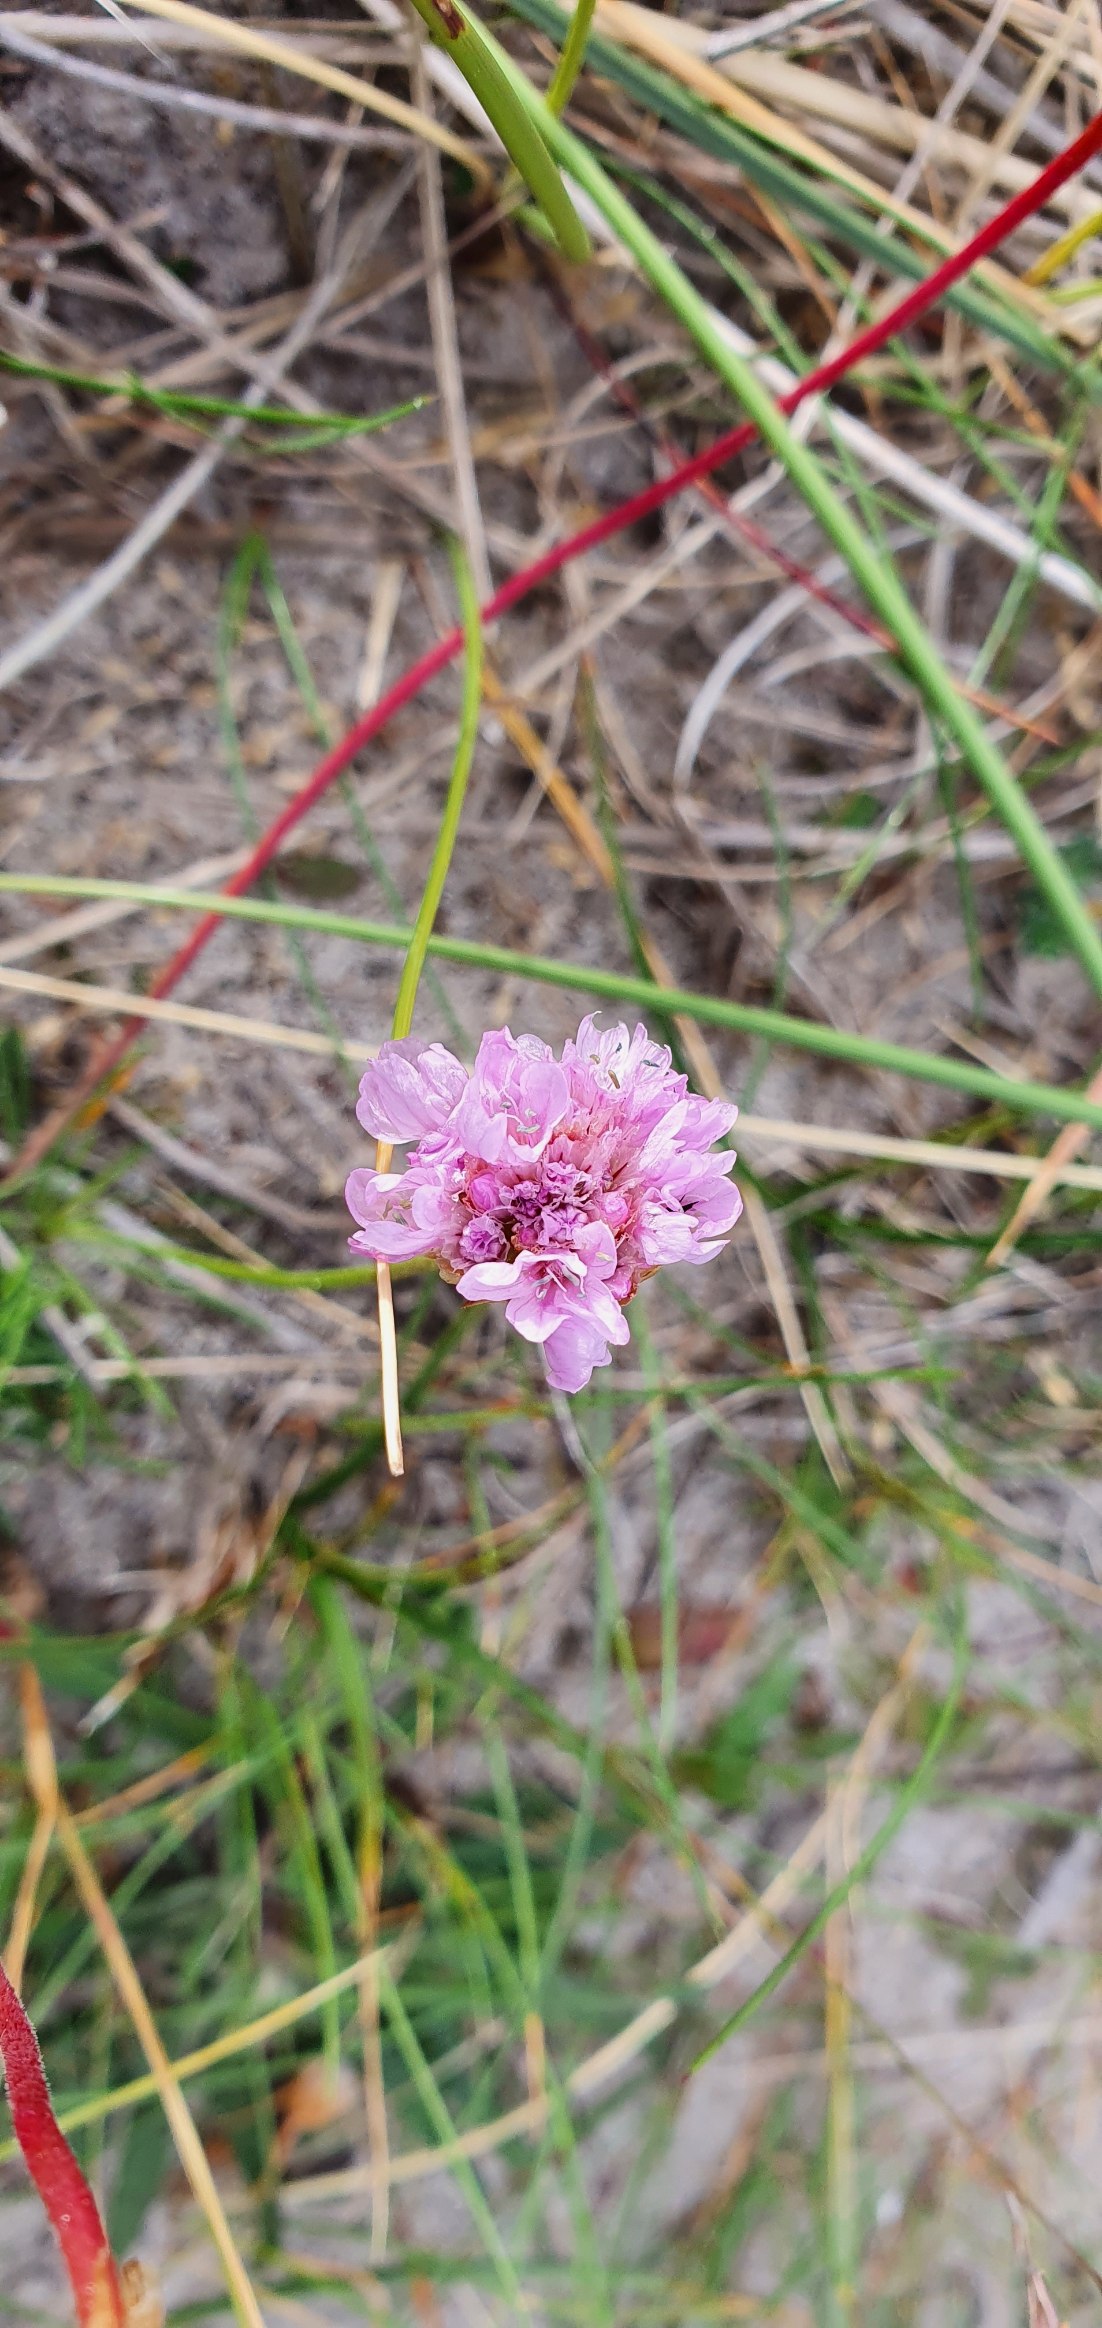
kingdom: Plantae
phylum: Tracheophyta
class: Magnoliopsida
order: Caryophyllales
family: Plumbaginaceae
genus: Armeria
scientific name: Armeria maritima
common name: Engelskgræs
